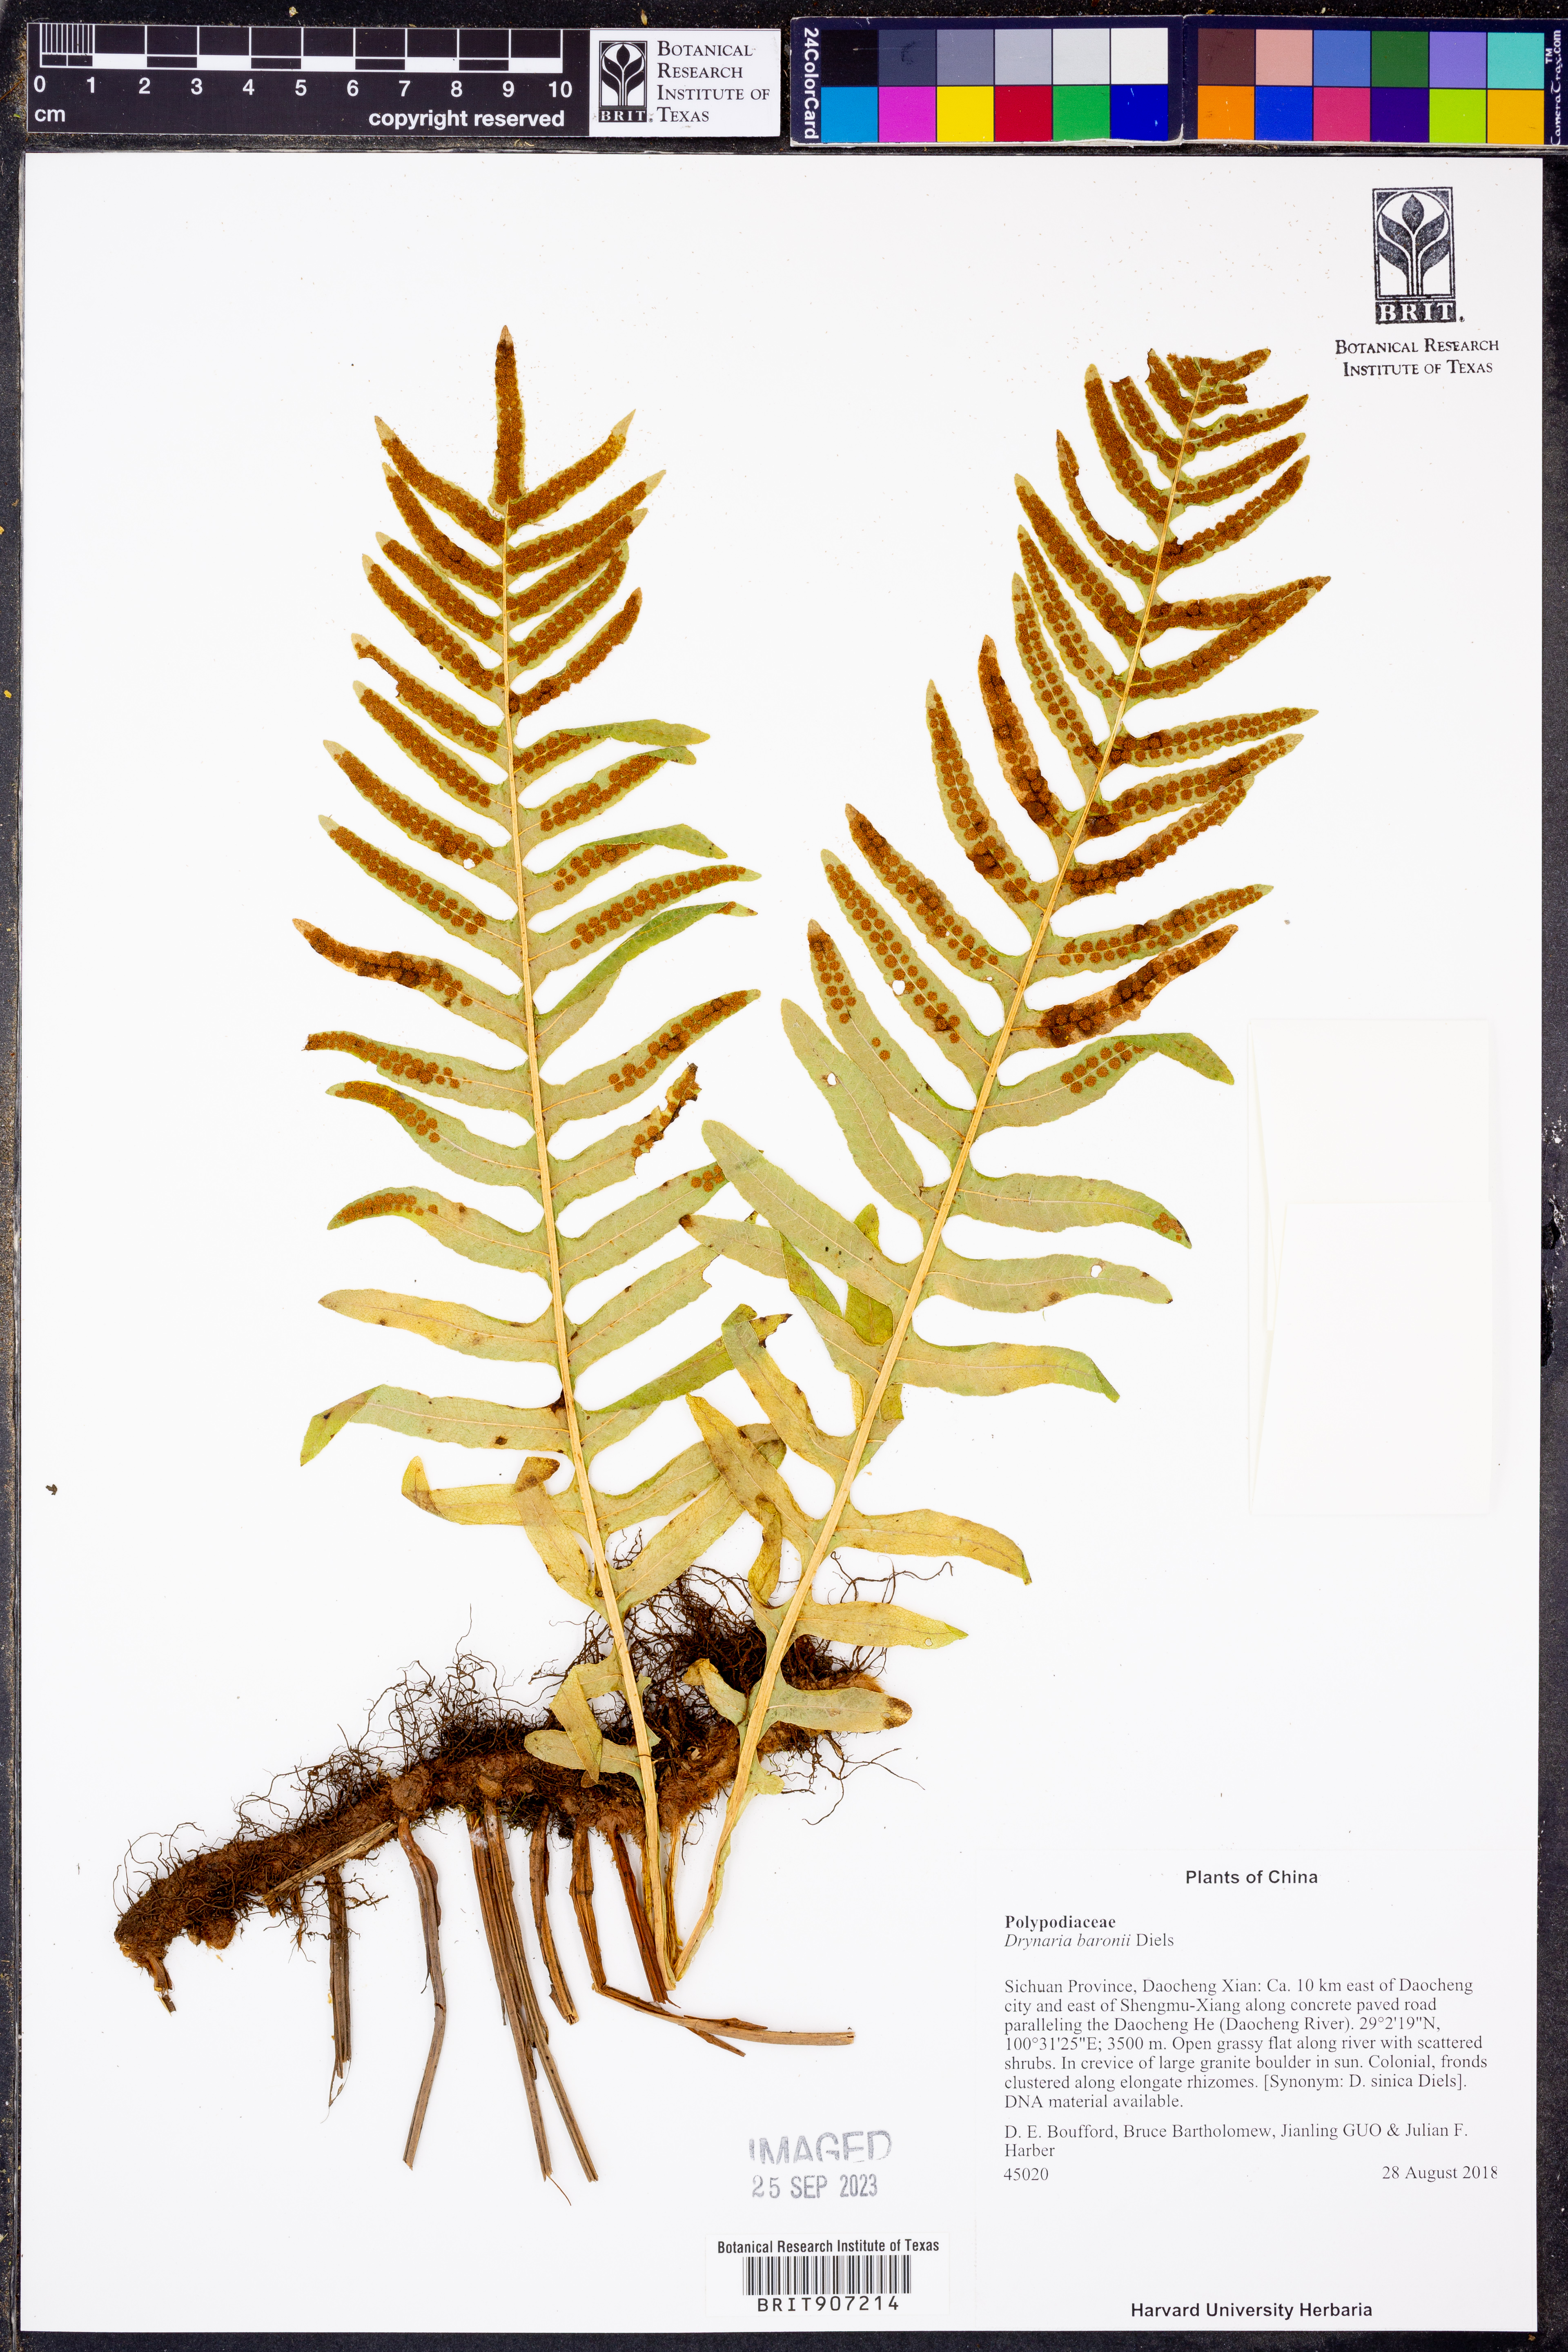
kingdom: Plantae
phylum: Tracheophyta
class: Polypodiopsida
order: Polypodiales
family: Polypodiaceae
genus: Drynaria
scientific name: Drynaria baronii
